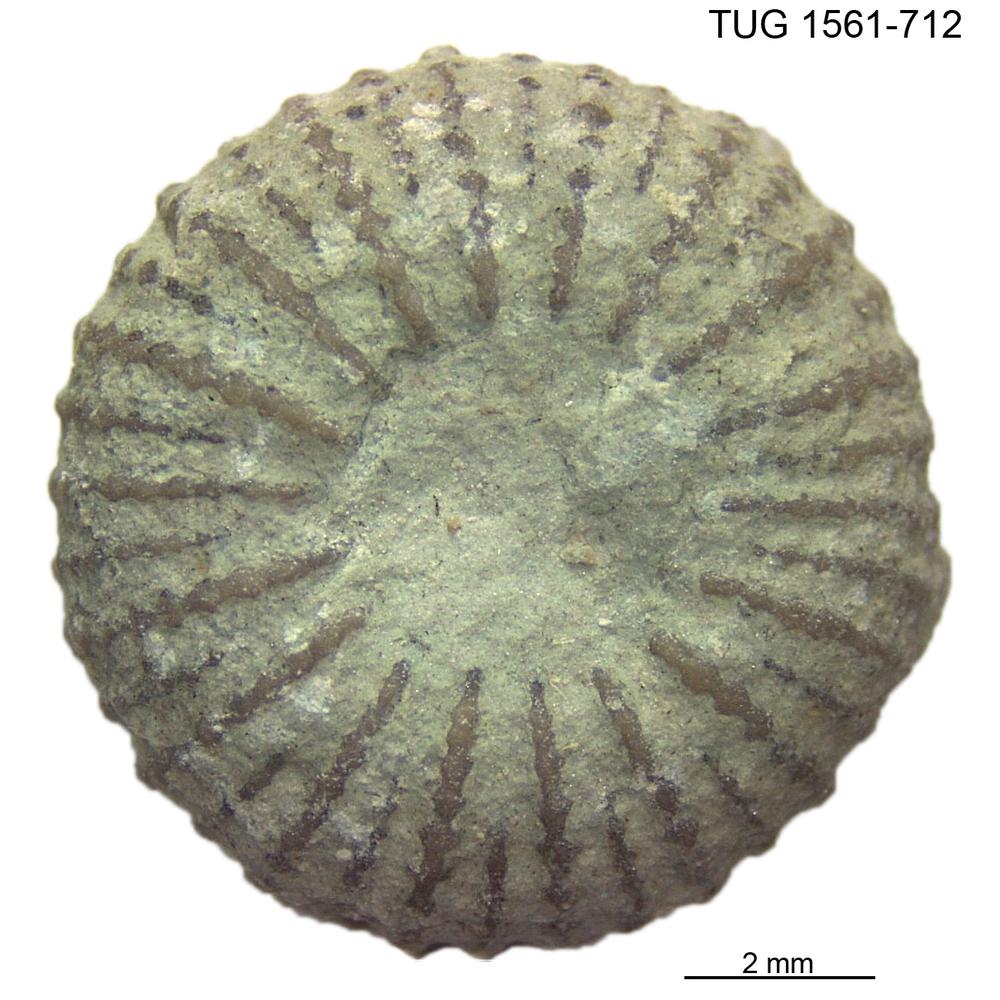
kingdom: Animalia
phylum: Cnidaria
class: Anthozoa
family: Palaeocyclidae
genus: Palaeocyclus
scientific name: Palaeocyclus Porpites porpita
